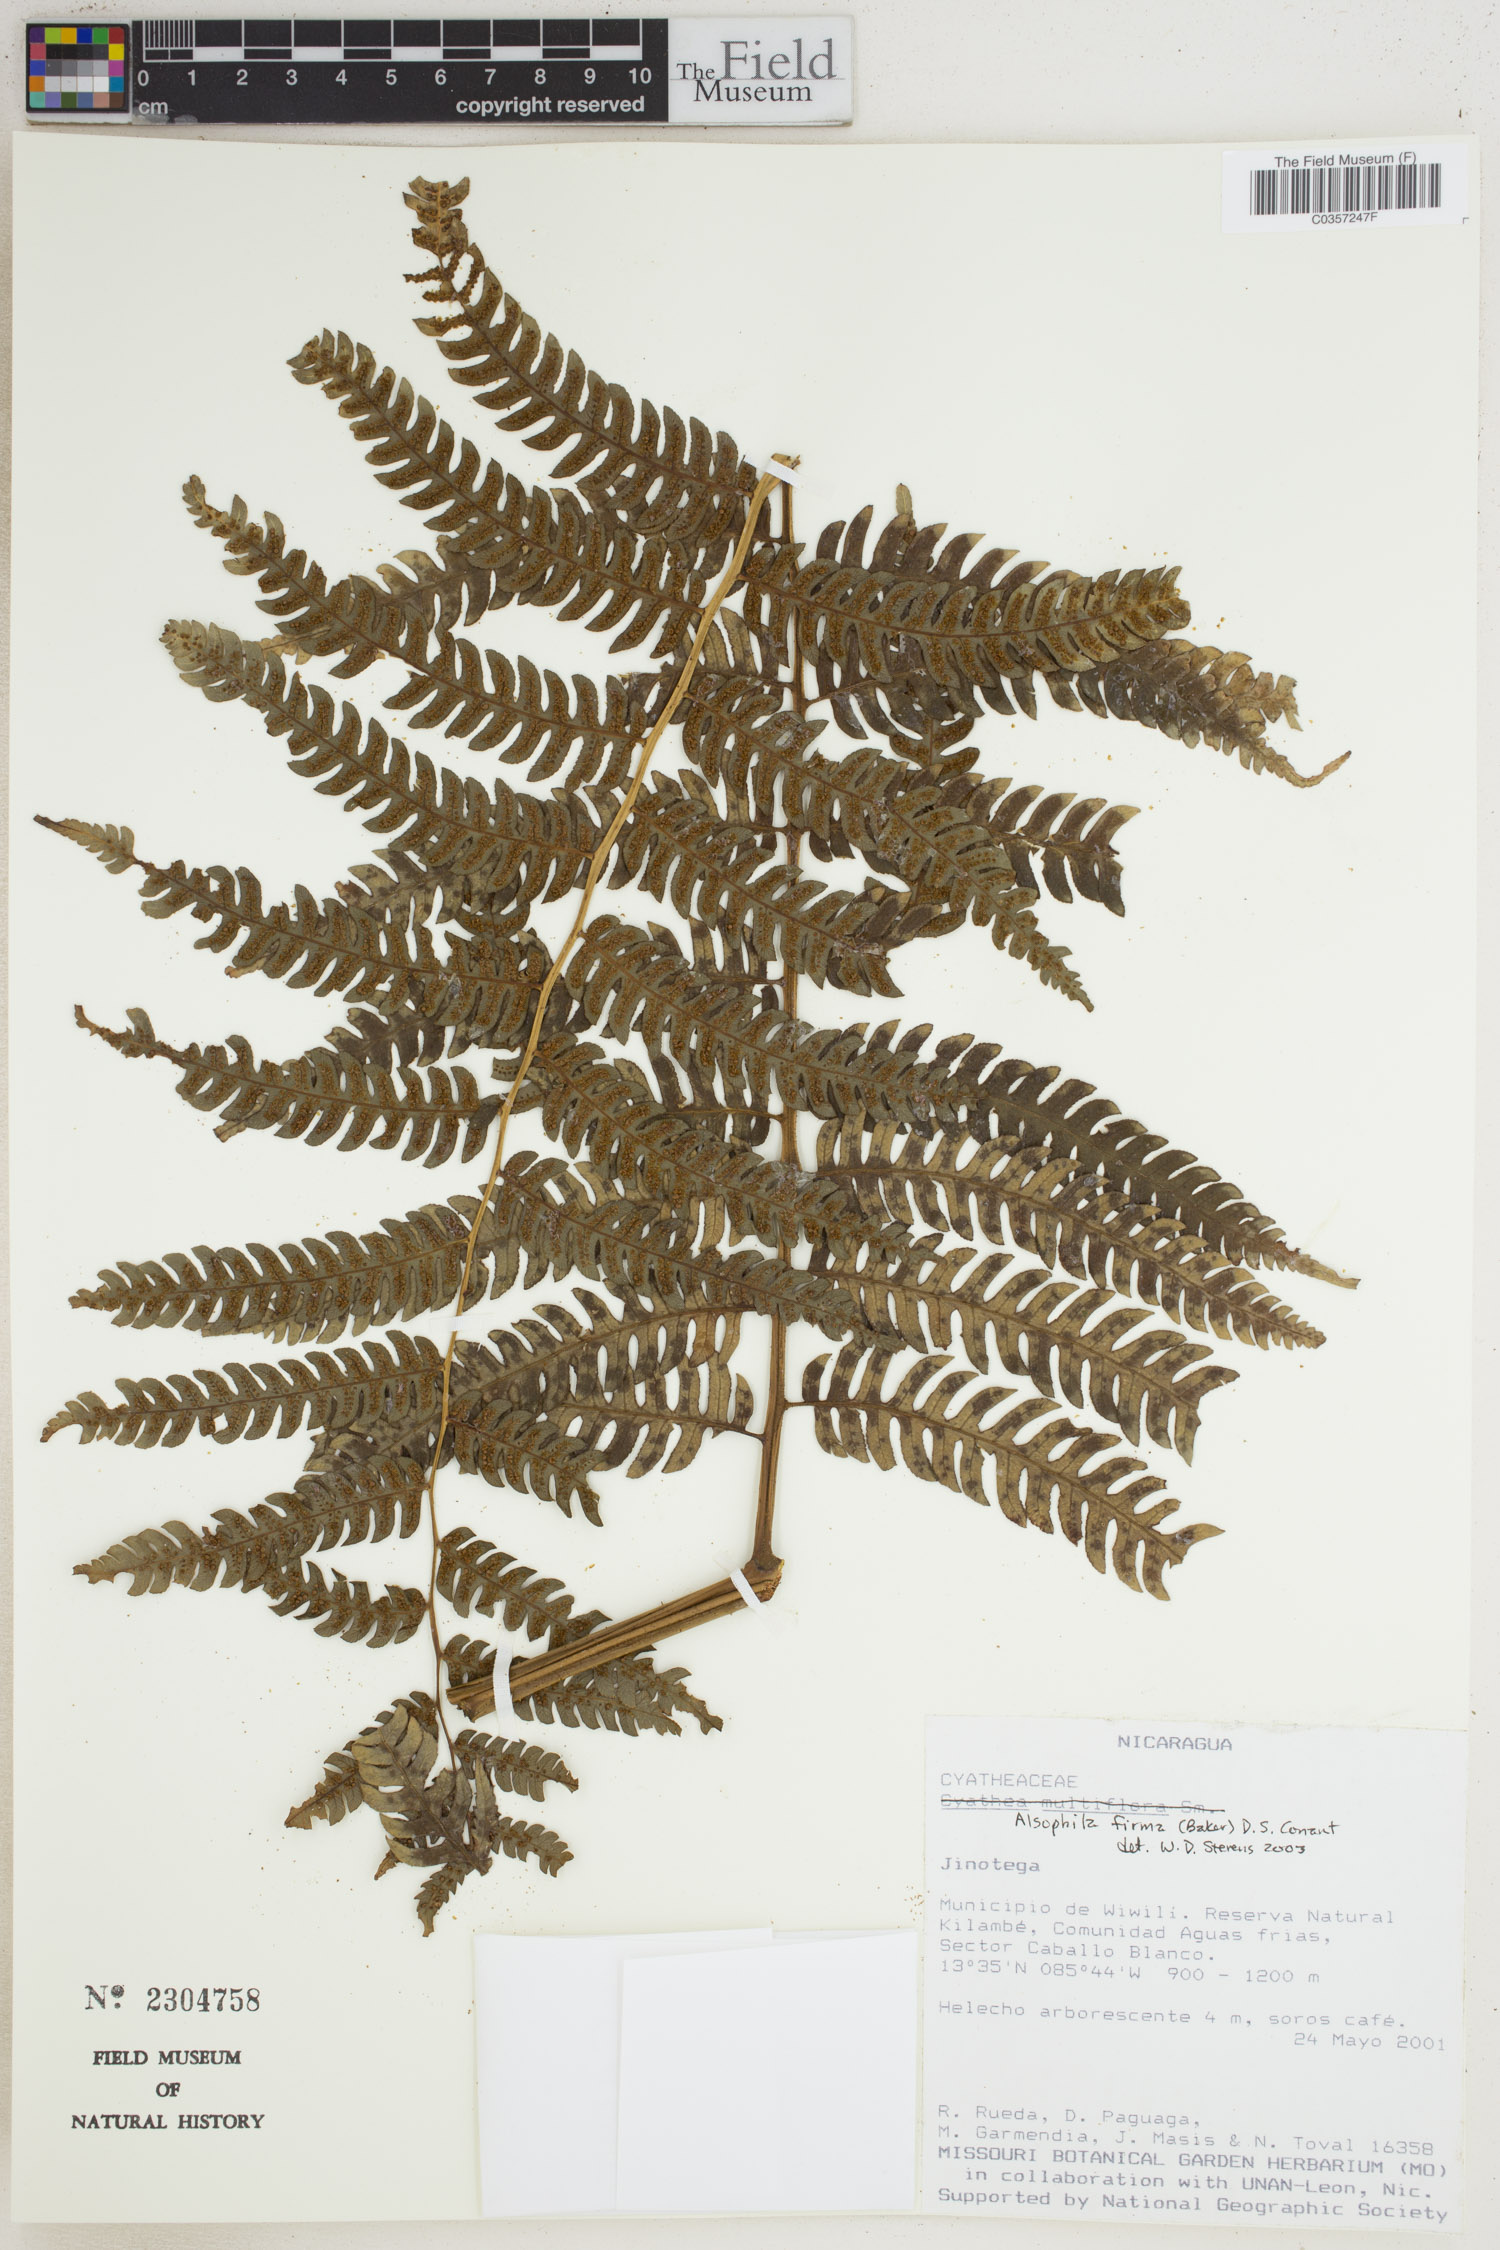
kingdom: Plantae
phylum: Tracheophyta
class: Polypodiopsida
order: Cyatheales
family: Cyatheaceae
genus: Alsophila
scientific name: Alsophila firma
